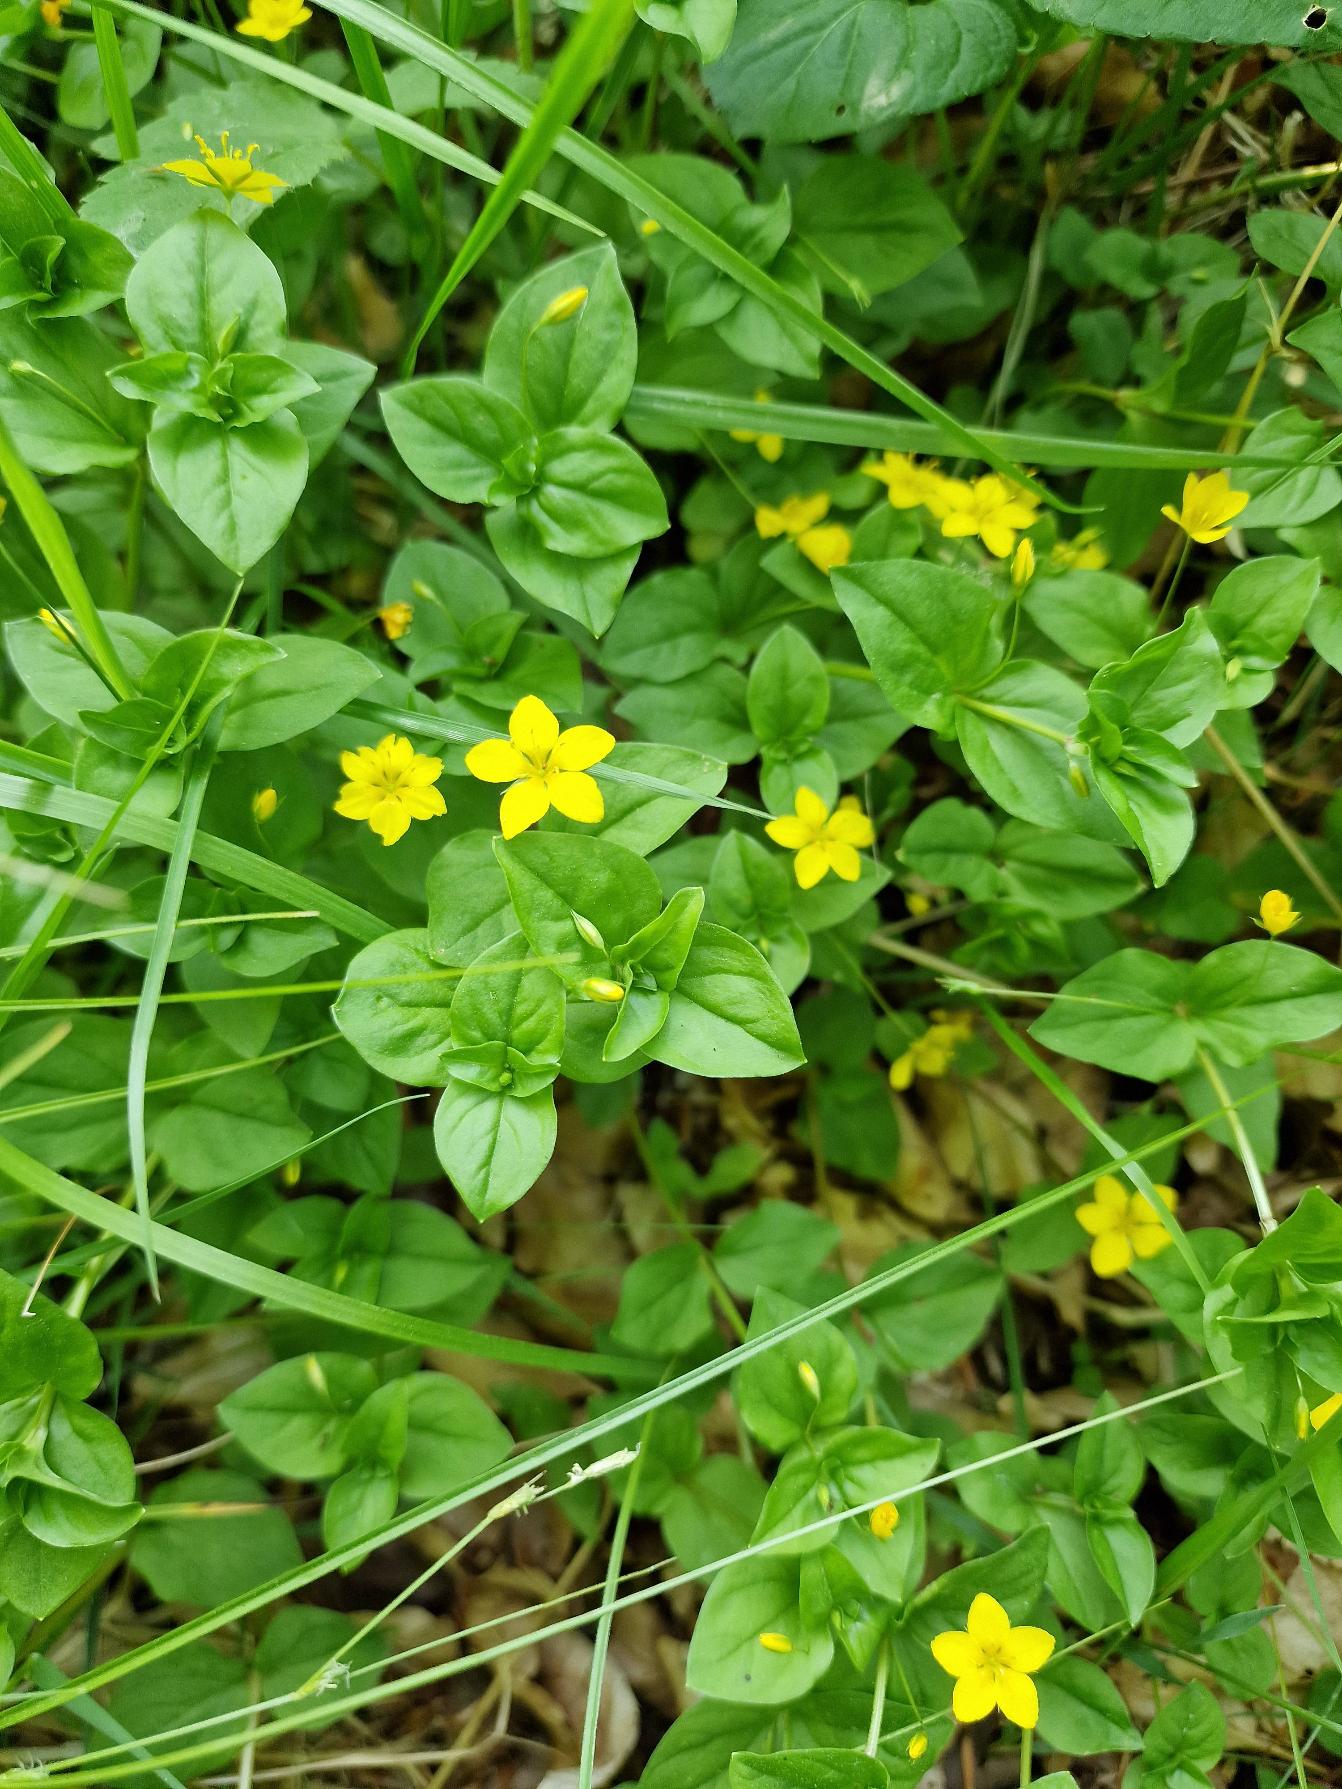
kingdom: Plantae
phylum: Tracheophyta
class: Magnoliopsida
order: Ericales
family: Primulaceae
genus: Lysimachia
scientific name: Lysimachia nemorum
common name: Lund-fredløs
